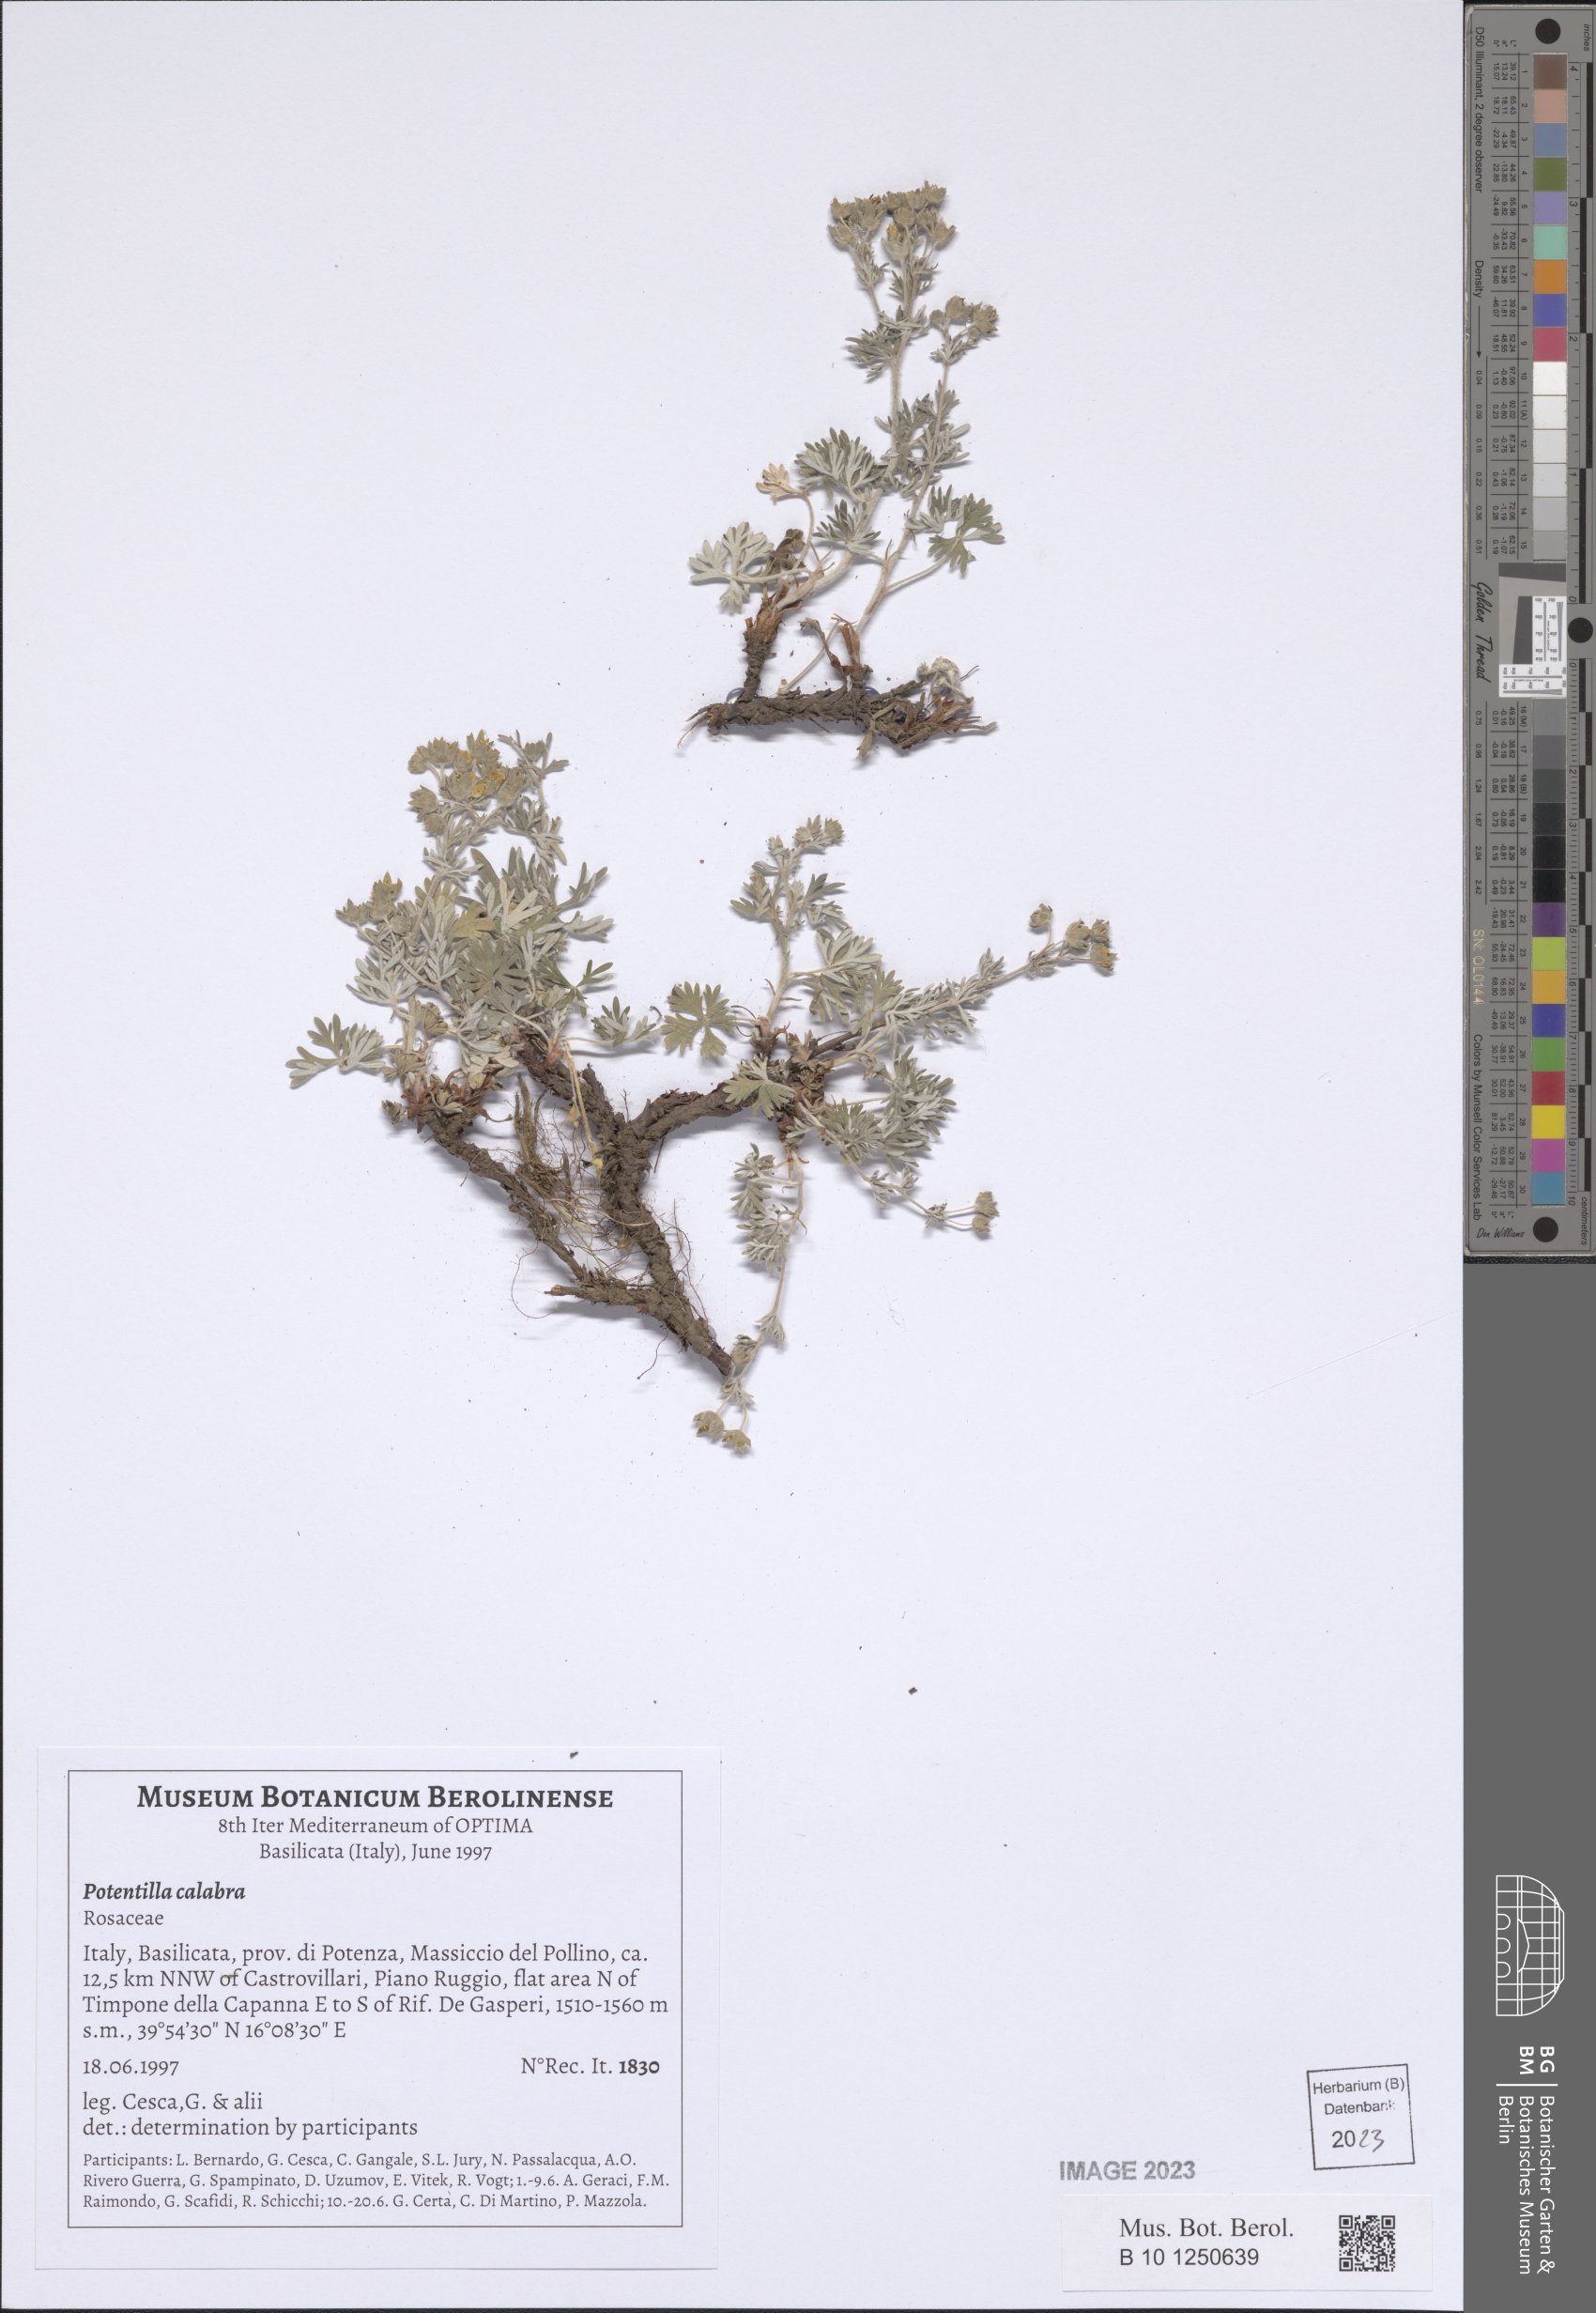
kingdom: Plantae
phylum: Tracheophyta
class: Magnoliopsida
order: Rosales
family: Rosaceae
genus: Potentilla
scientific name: Potentilla calabra
